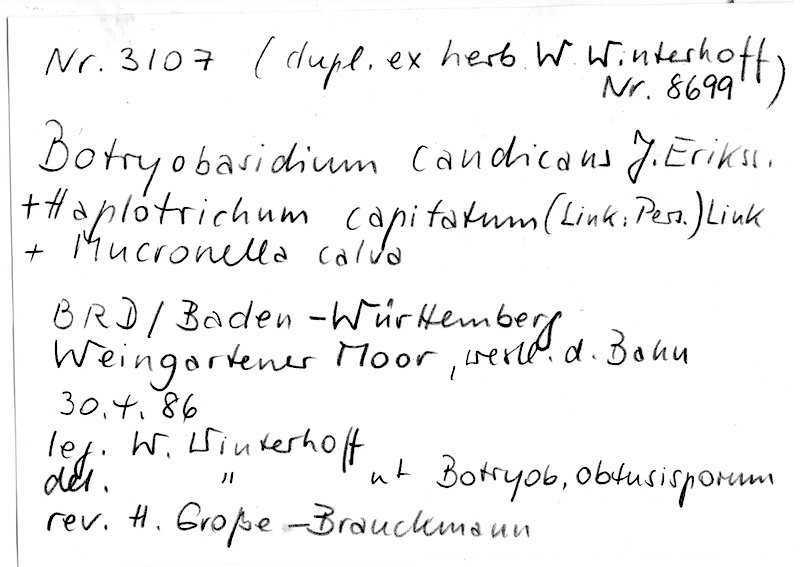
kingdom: Fungi
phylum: Basidiomycota
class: Agaricomycetes
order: Agaricales
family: Clavariaceae
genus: Mucronella
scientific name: Mucronella calva
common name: Swarming spine
